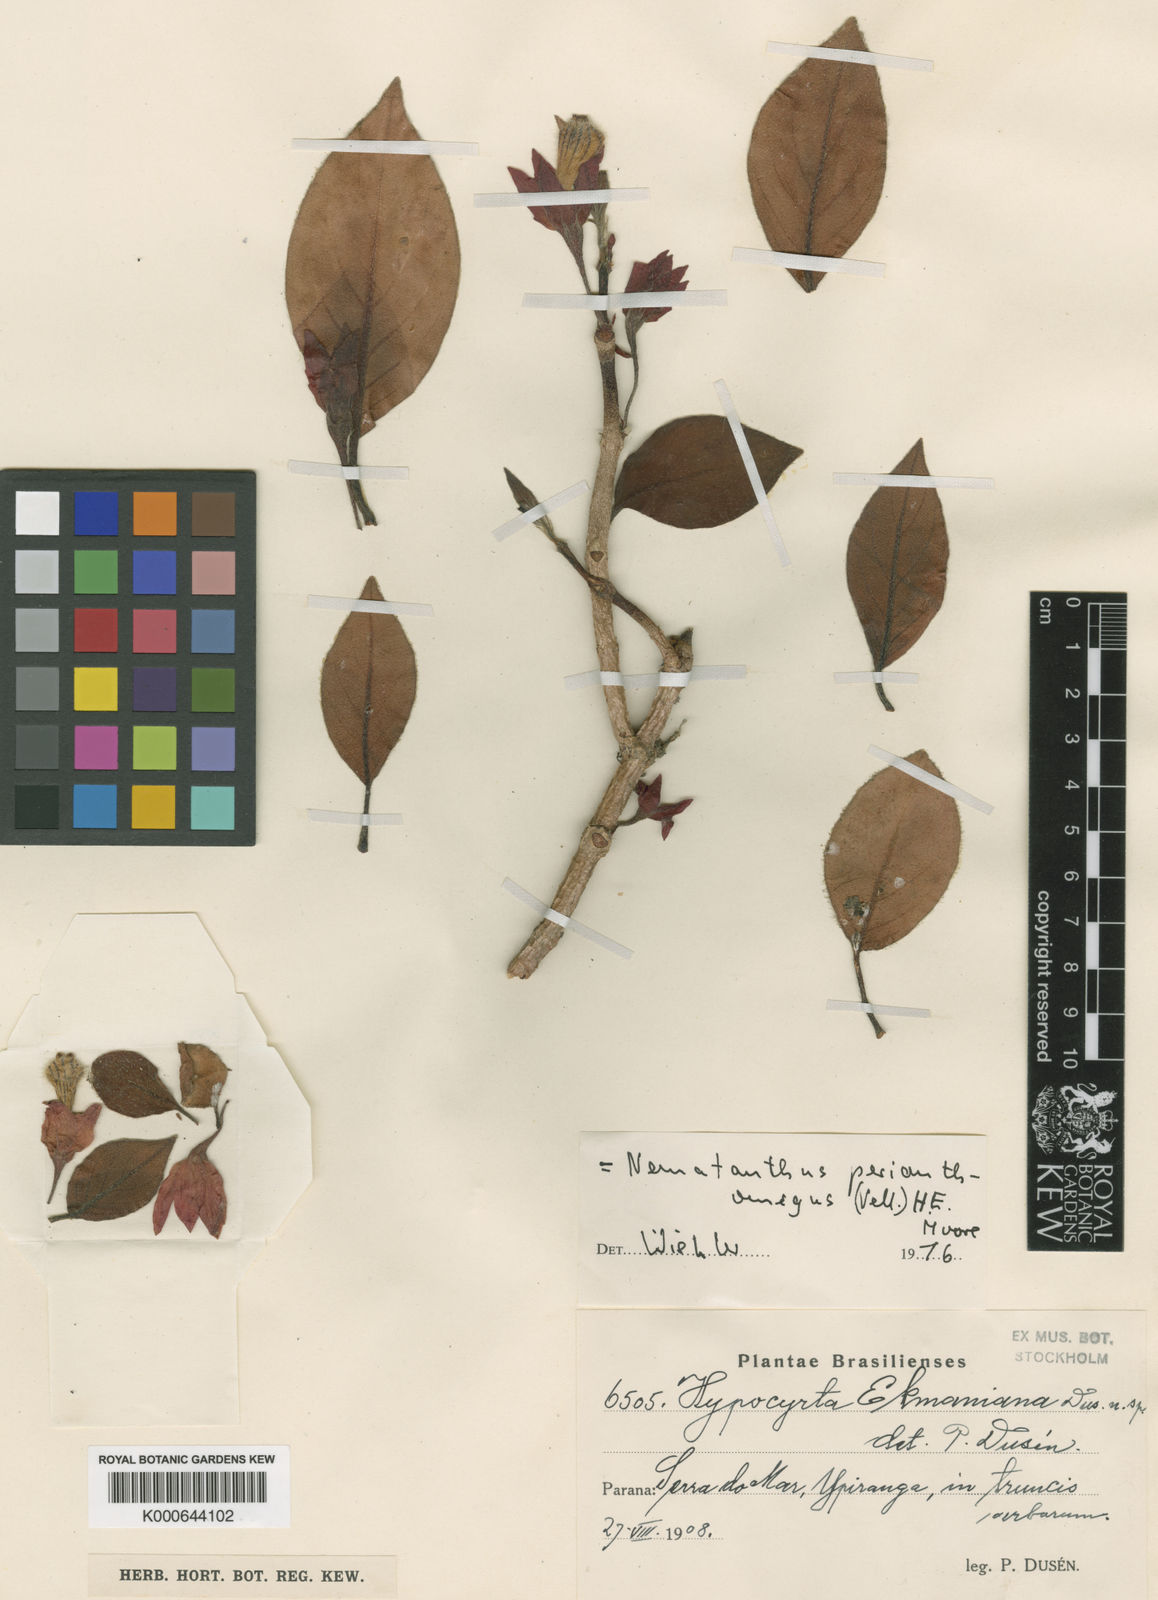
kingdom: Plantae
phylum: Tracheophyta
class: Magnoliopsida
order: Lamiales
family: Gesneriaceae
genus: Nematanthus
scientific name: Nematanthus tessmannii
